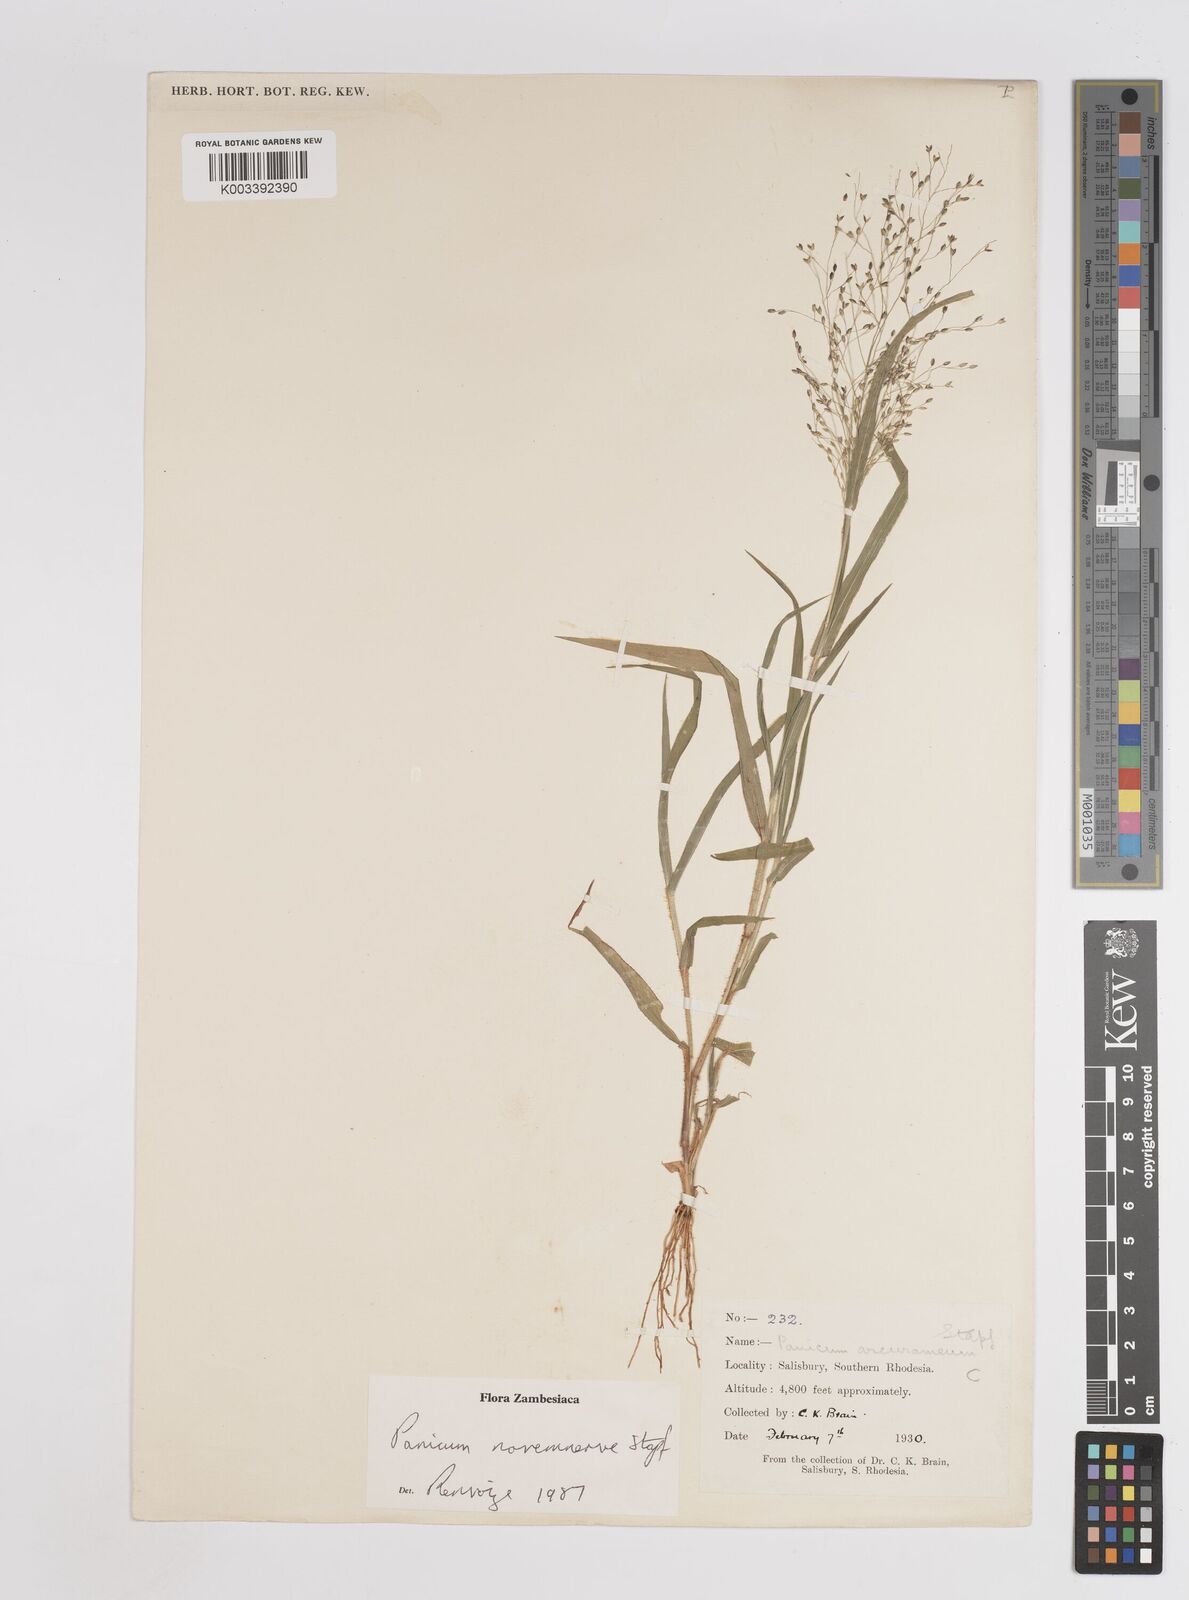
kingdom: Plantae
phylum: Tracheophyta
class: Liliopsida
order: Poales
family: Poaceae
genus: Panicum
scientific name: Panicum novemnerve
